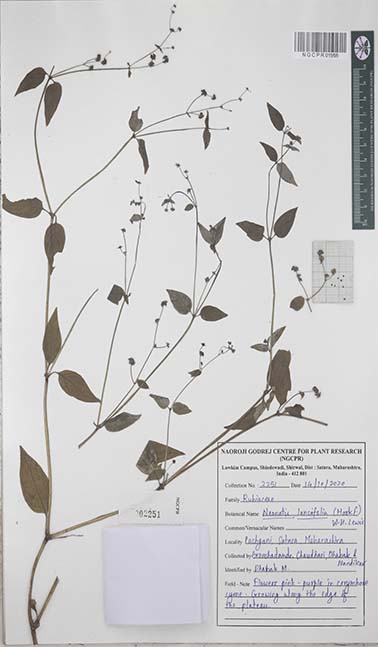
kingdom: Plantae
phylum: Tracheophyta
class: Magnoliopsida
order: Gentianales
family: Rubiaceae
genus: Neanotis
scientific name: Neanotis latifolia
